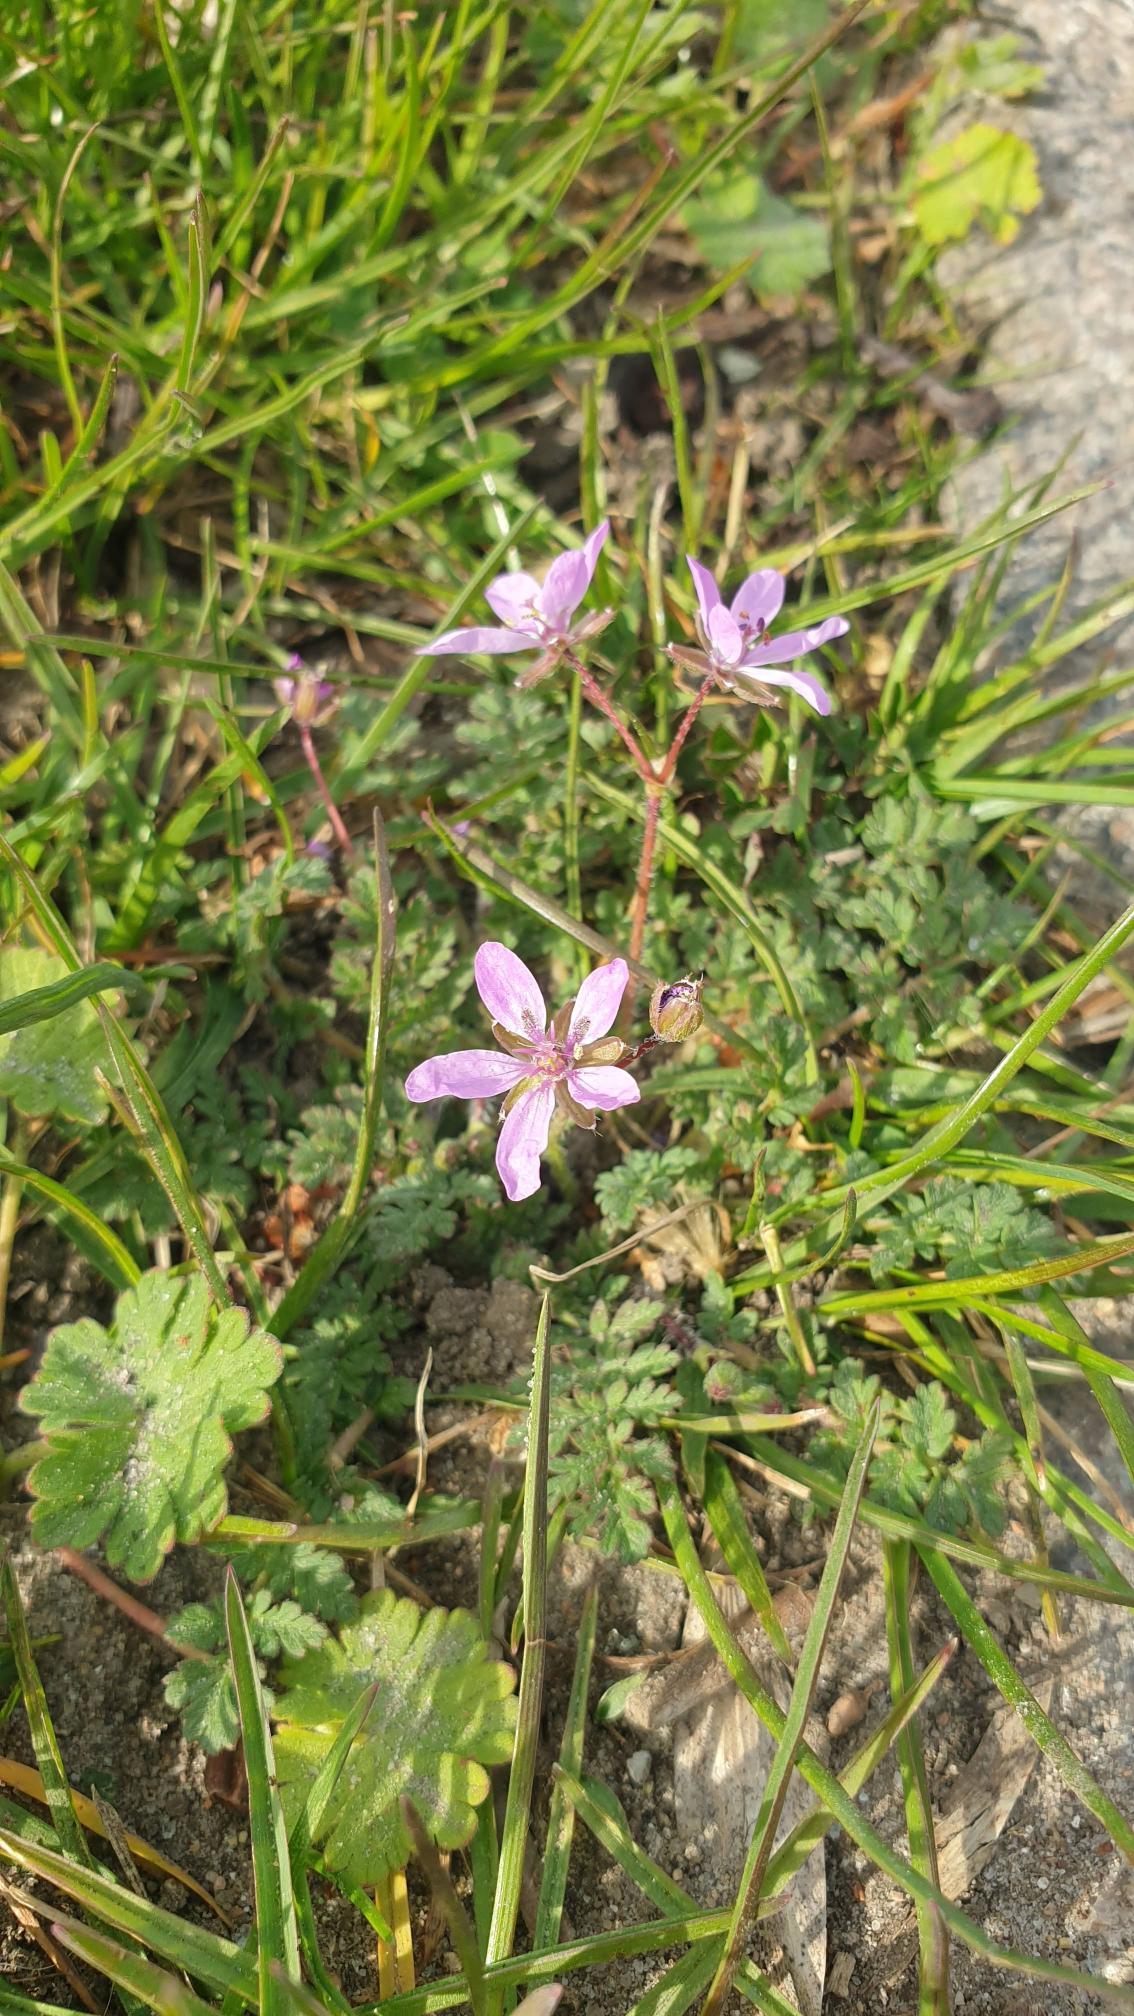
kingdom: Plantae
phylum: Tracheophyta
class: Magnoliopsida
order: Geraniales
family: Geraniaceae
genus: Erodium
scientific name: Erodium cicutarium
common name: Hejrenæb
